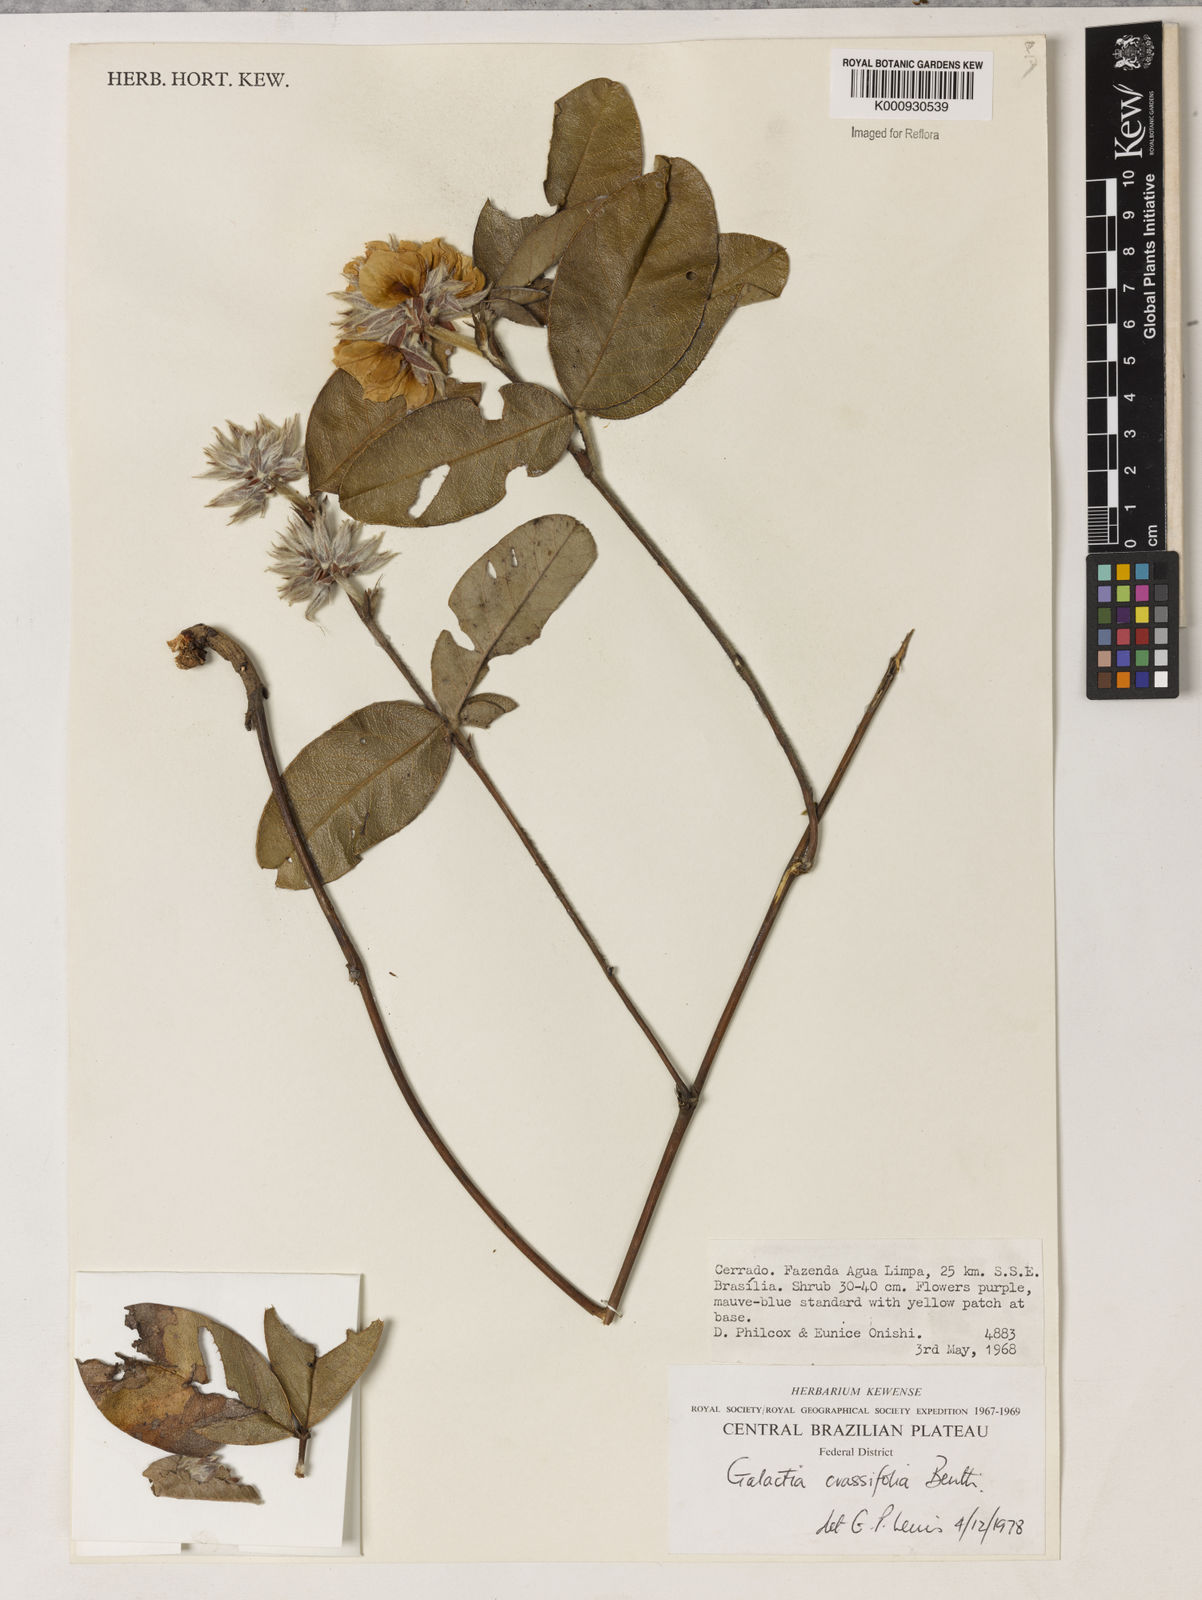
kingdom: Plantae
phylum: Tracheophyta
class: Magnoliopsida
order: Fabales
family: Fabaceae
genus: Betencourtia
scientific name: Betencourtia crassifolia
